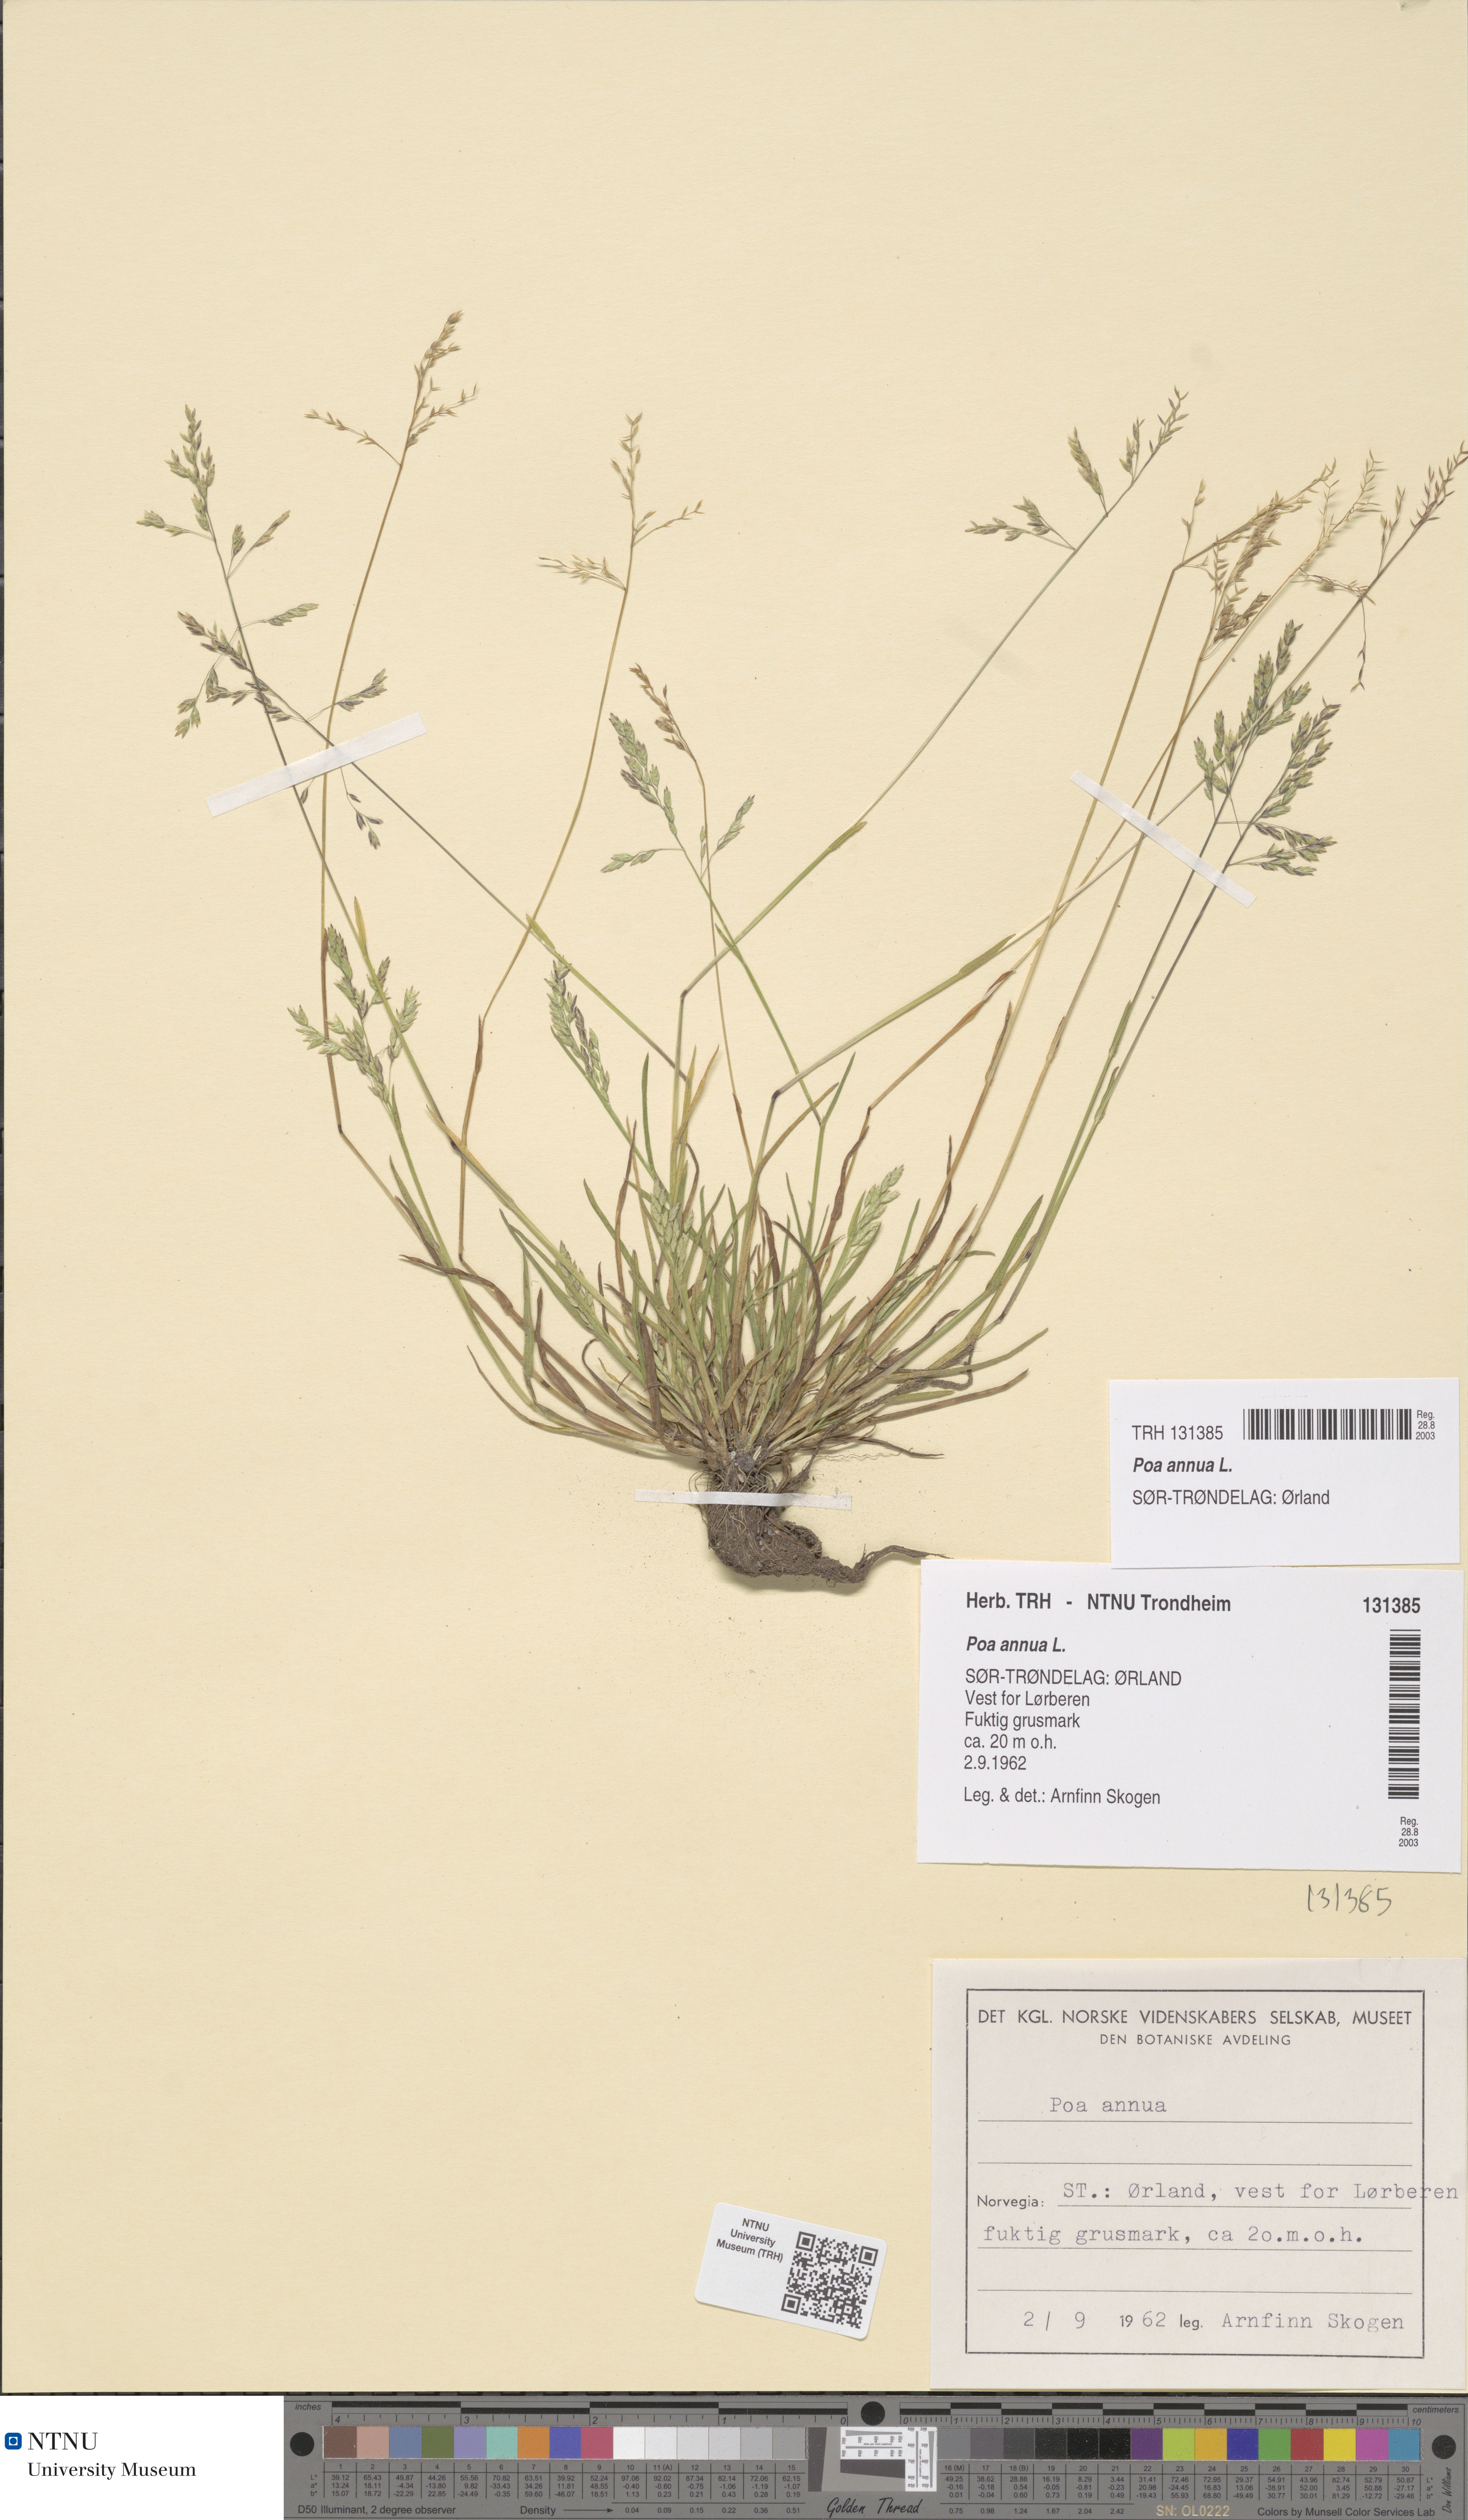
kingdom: Plantae
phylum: Tracheophyta
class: Liliopsida
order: Poales
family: Poaceae
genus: Poa
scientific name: Poa annua
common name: Annual bluegrass
